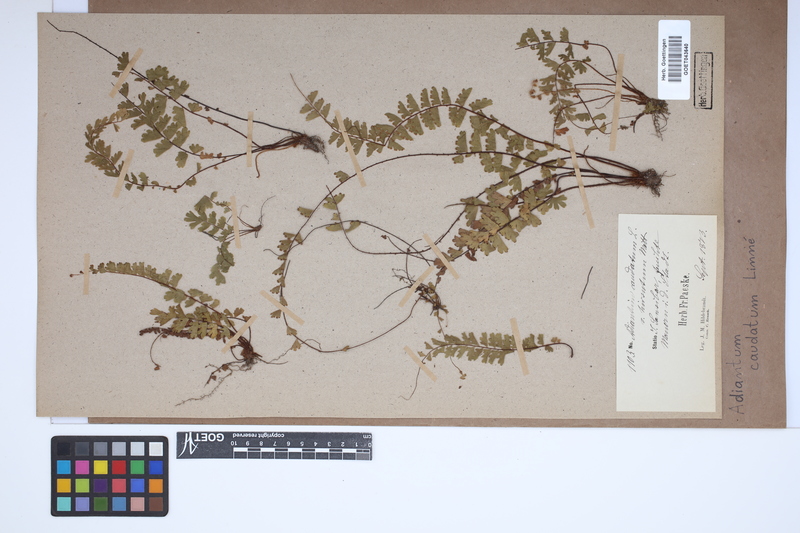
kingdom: Plantae
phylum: Tracheophyta
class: Polypodiopsida
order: Polypodiales
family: Pteridaceae
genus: Adiantum
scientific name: Adiantum caudatum
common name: Tailed maidenhair
